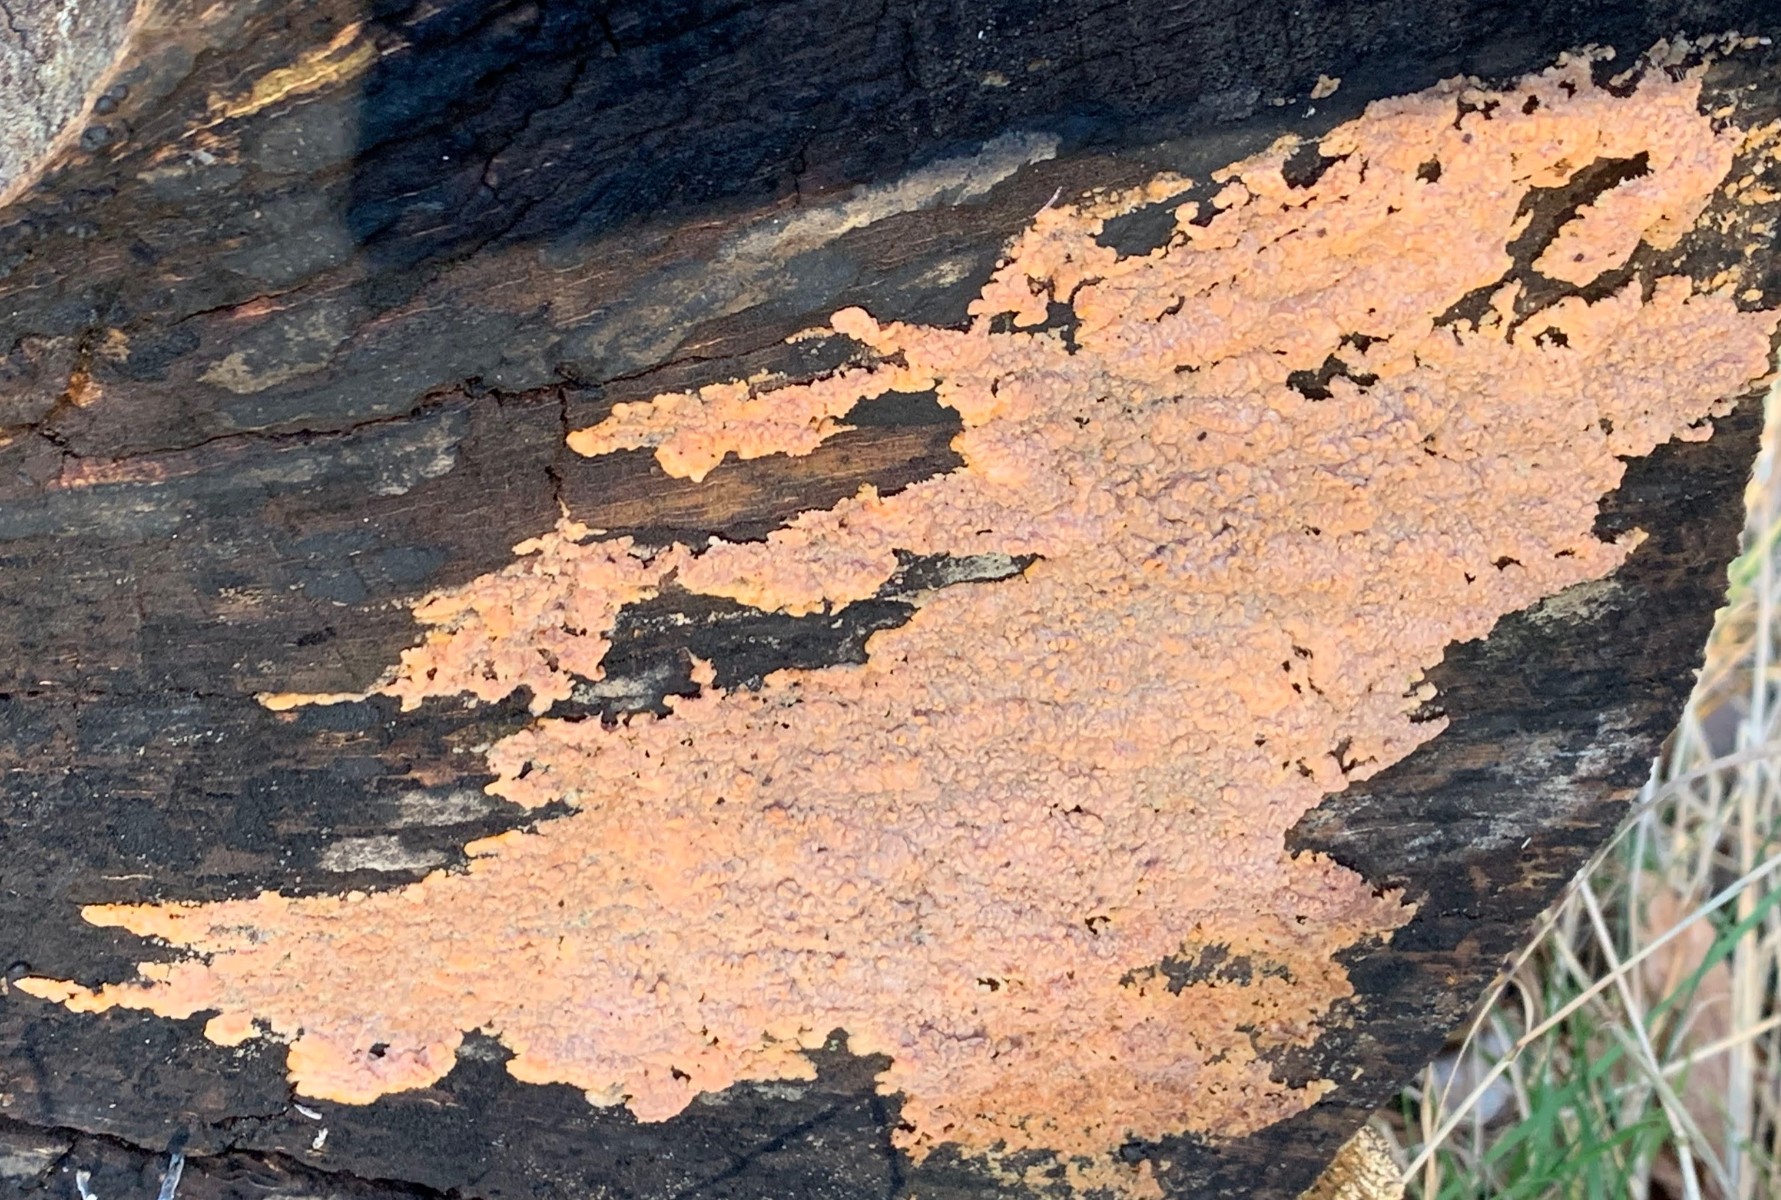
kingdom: Fungi
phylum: Basidiomycota
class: Agaricomycetes
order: Russulales
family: Peniophoraceae
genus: Peniophora
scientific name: Peniophora incarnata
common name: laksefarvet voksskind
